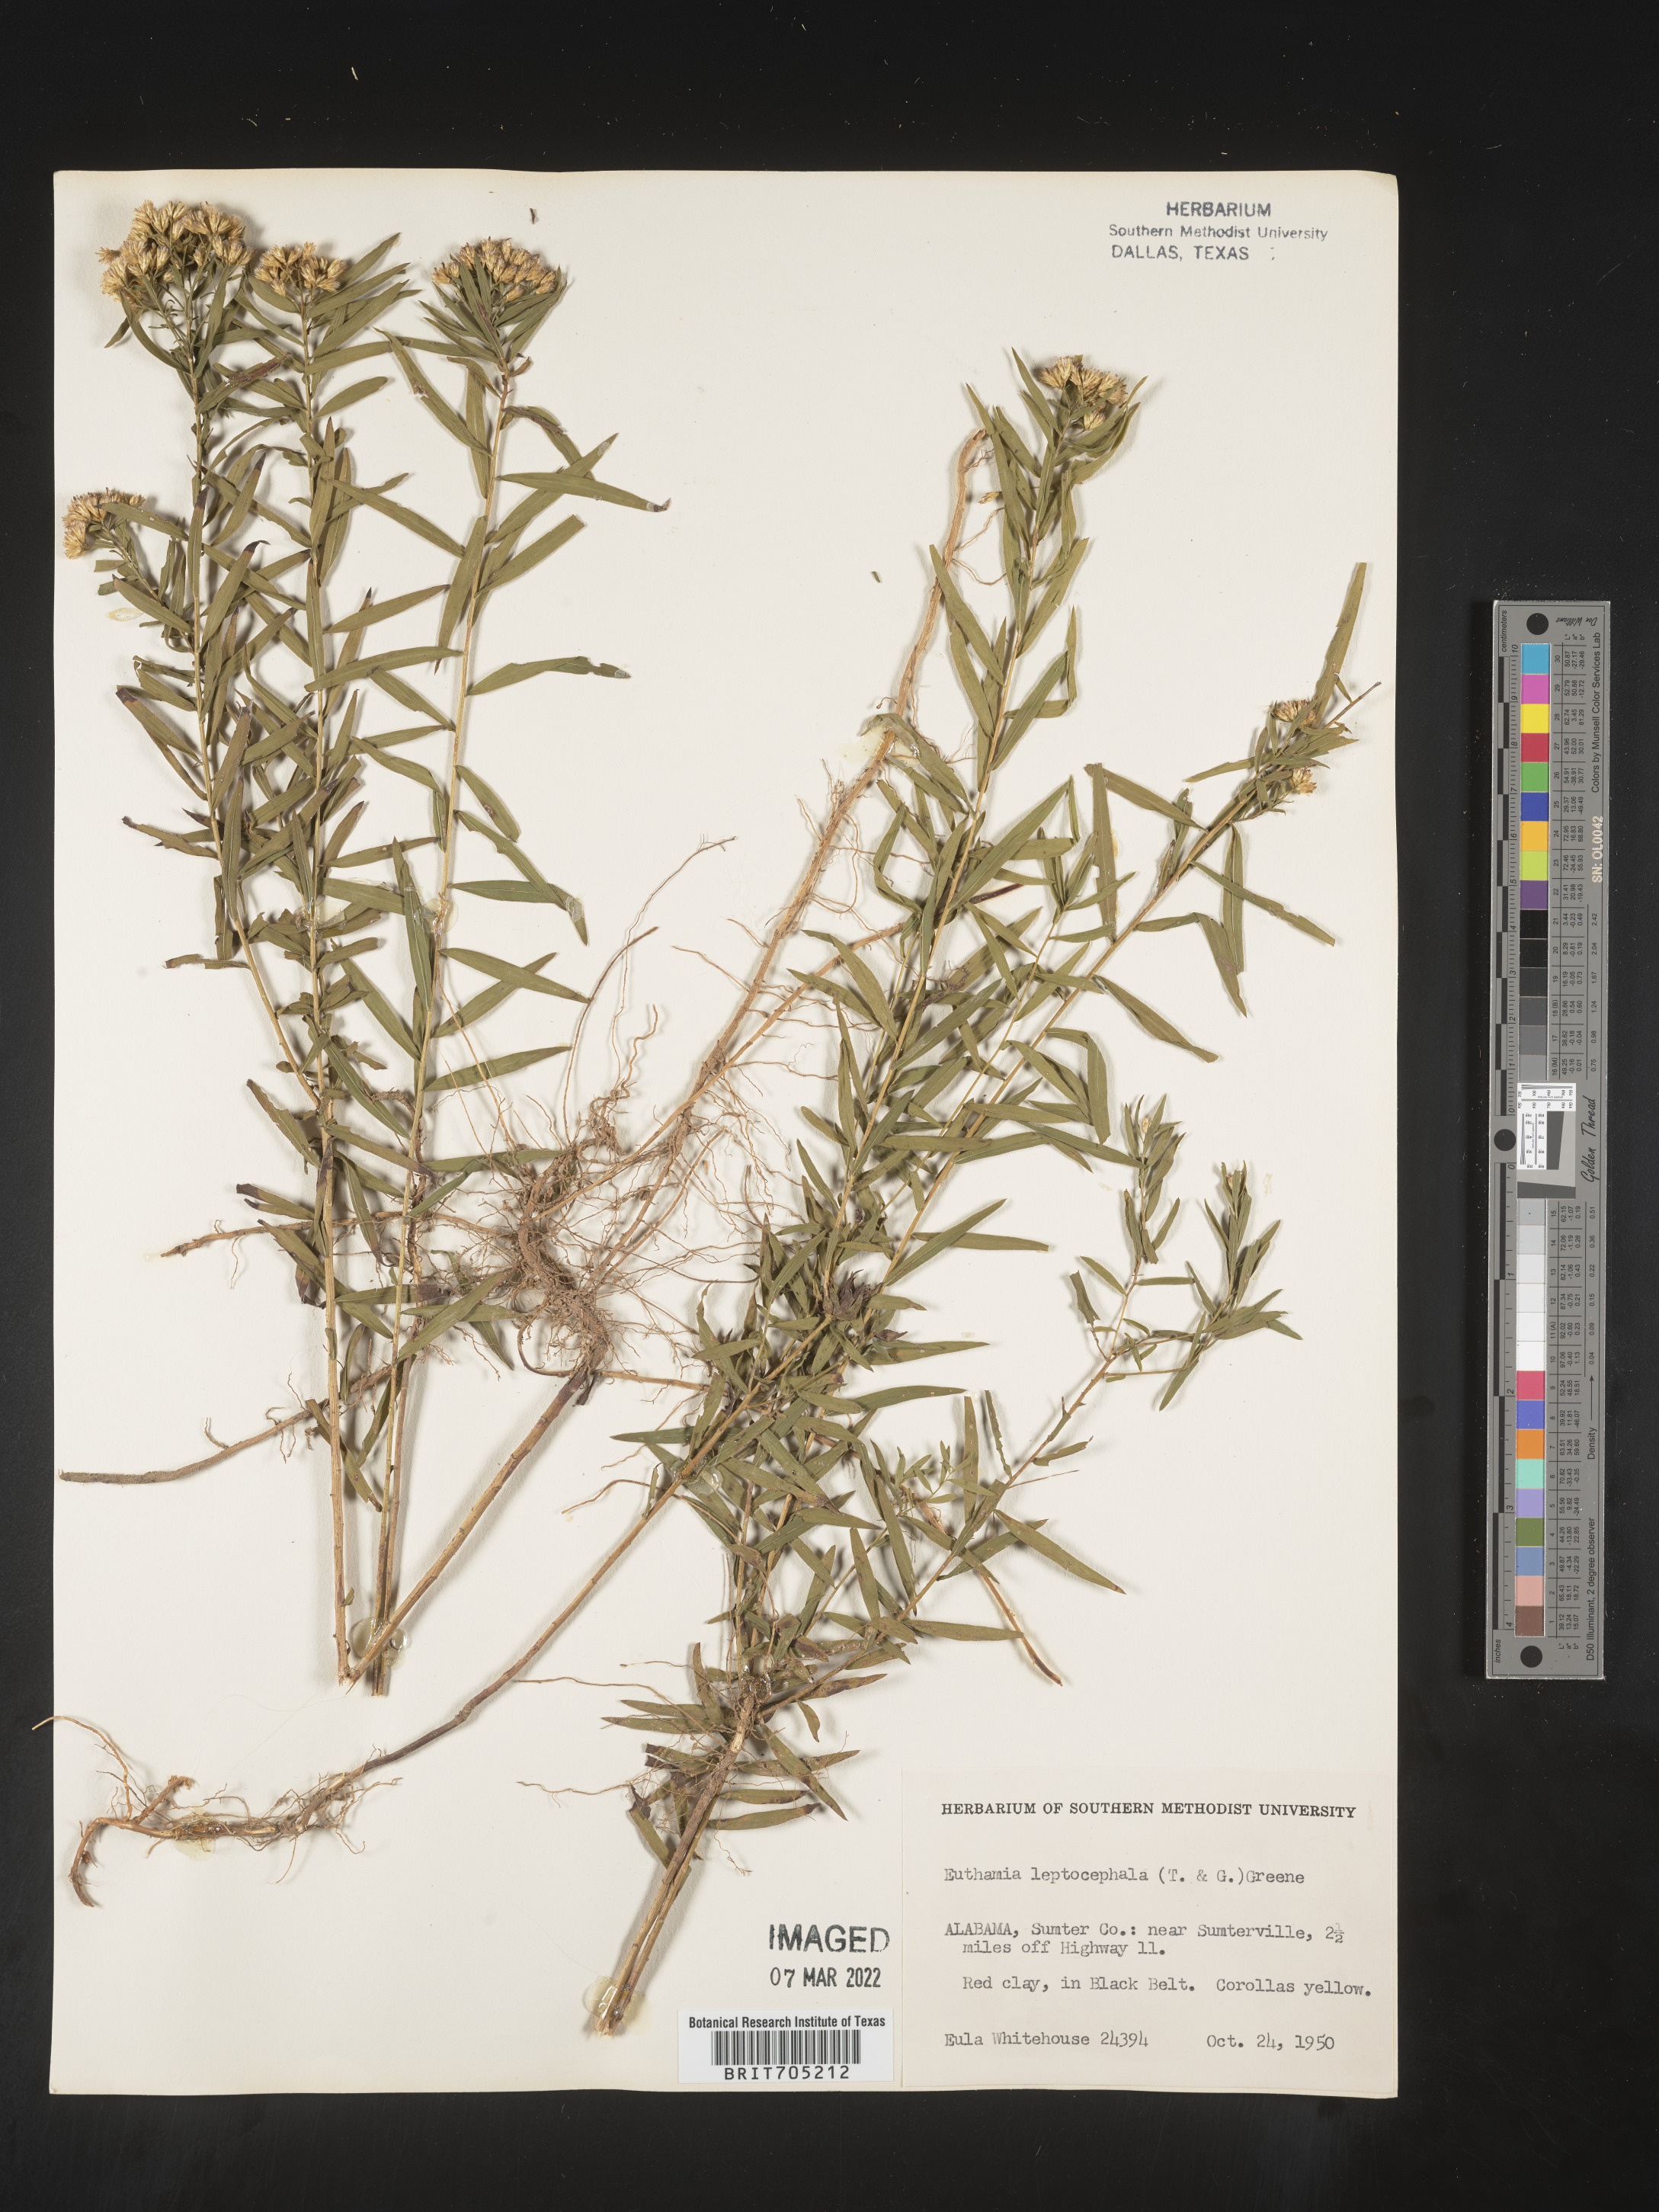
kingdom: Plantae
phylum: Tracheophyta
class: Magnoliopsida
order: Asterales
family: Asteraceae
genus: Euthamia
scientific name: Euthamia leptocephala
